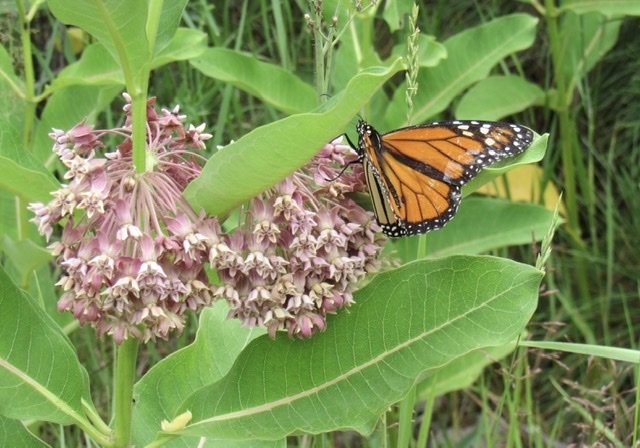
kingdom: Animalia
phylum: Arthropoda
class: Insecta
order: Lepidoptera
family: Nymphalidae
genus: Danaus
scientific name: Danaus plexippus
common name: Monarch
